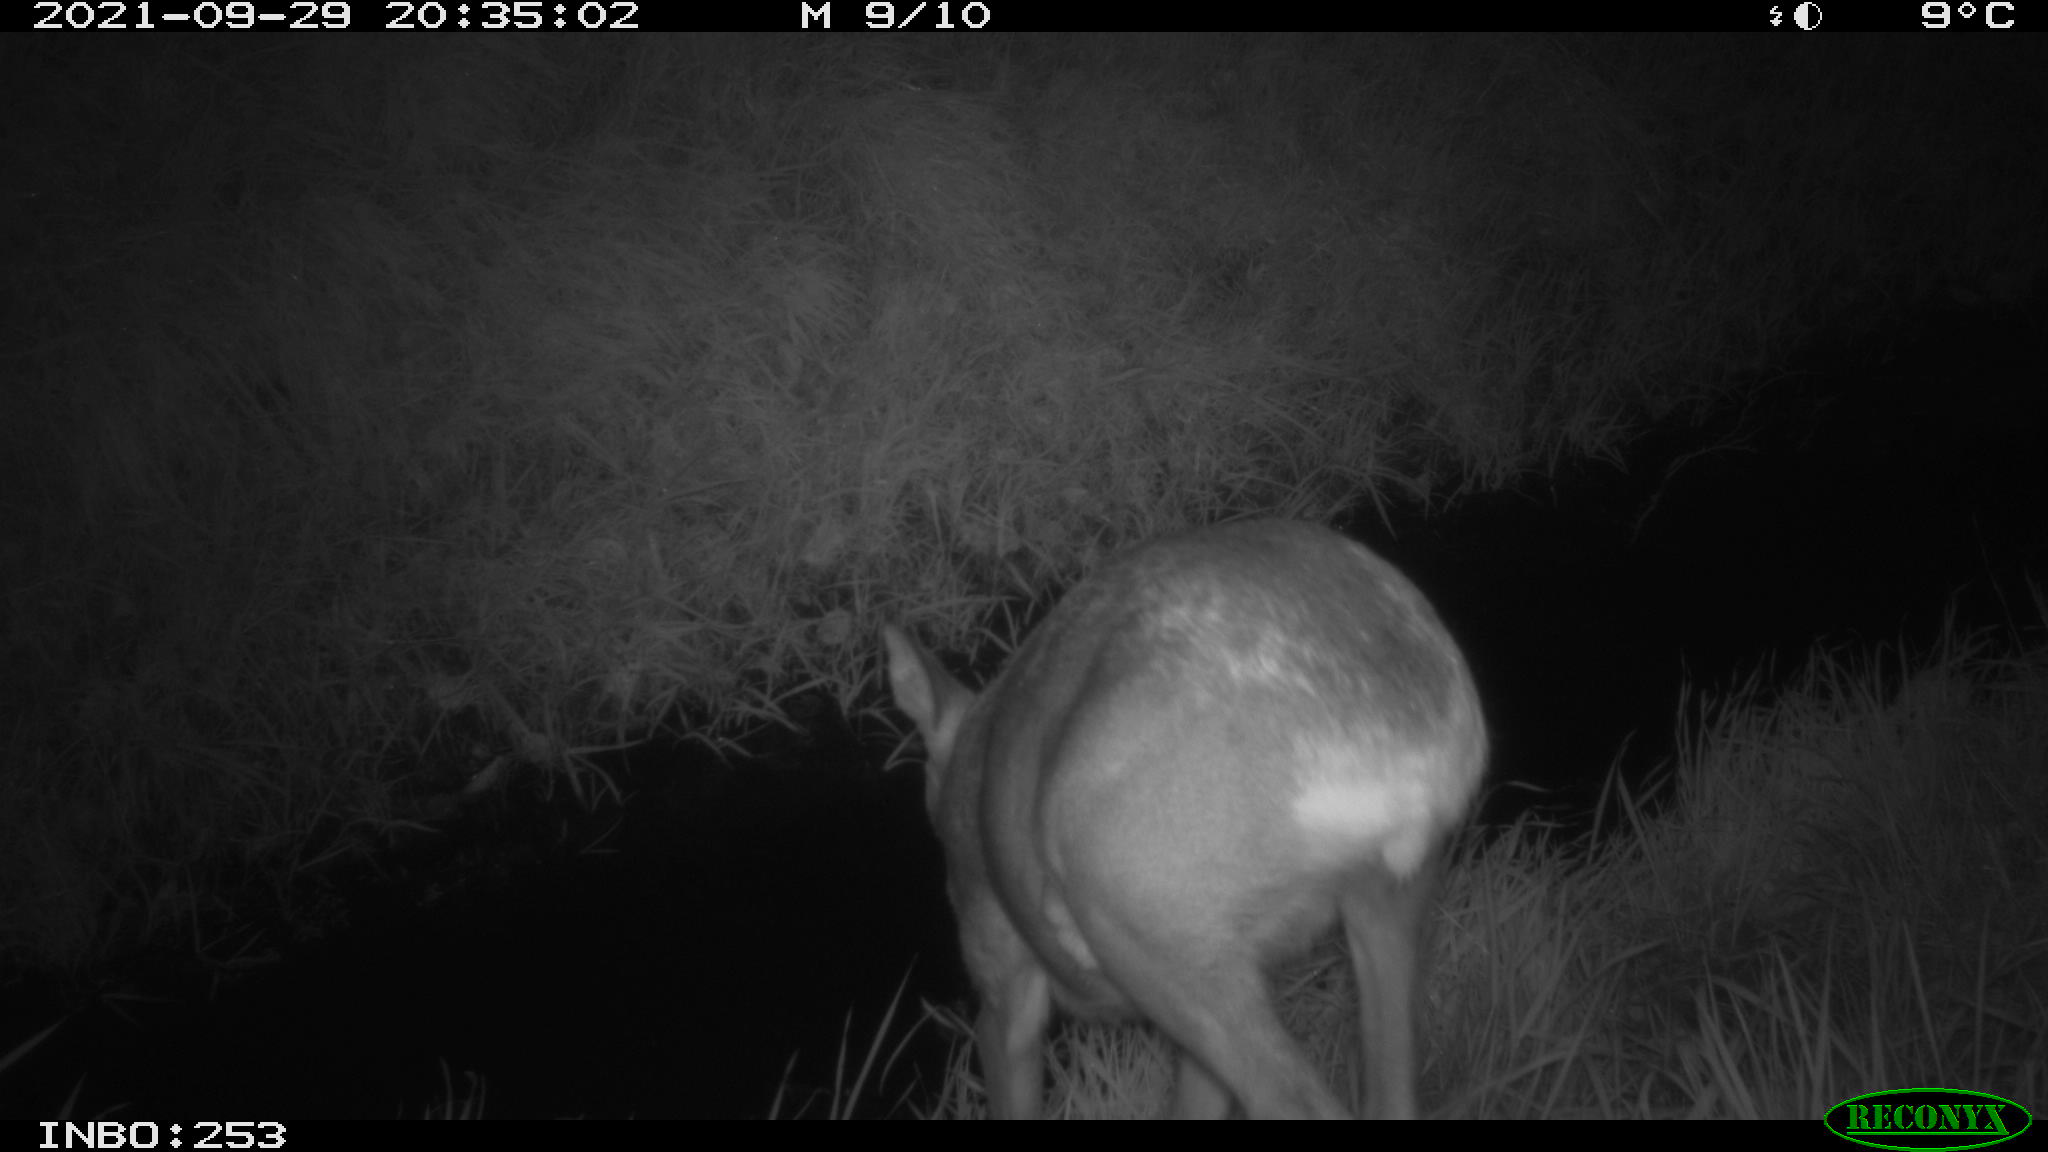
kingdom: Animalia
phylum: Chordata
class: Mammalia
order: Artiodactyla
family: Cervidae
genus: Capreolus
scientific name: Capreolus capreolus
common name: Western roe deer
